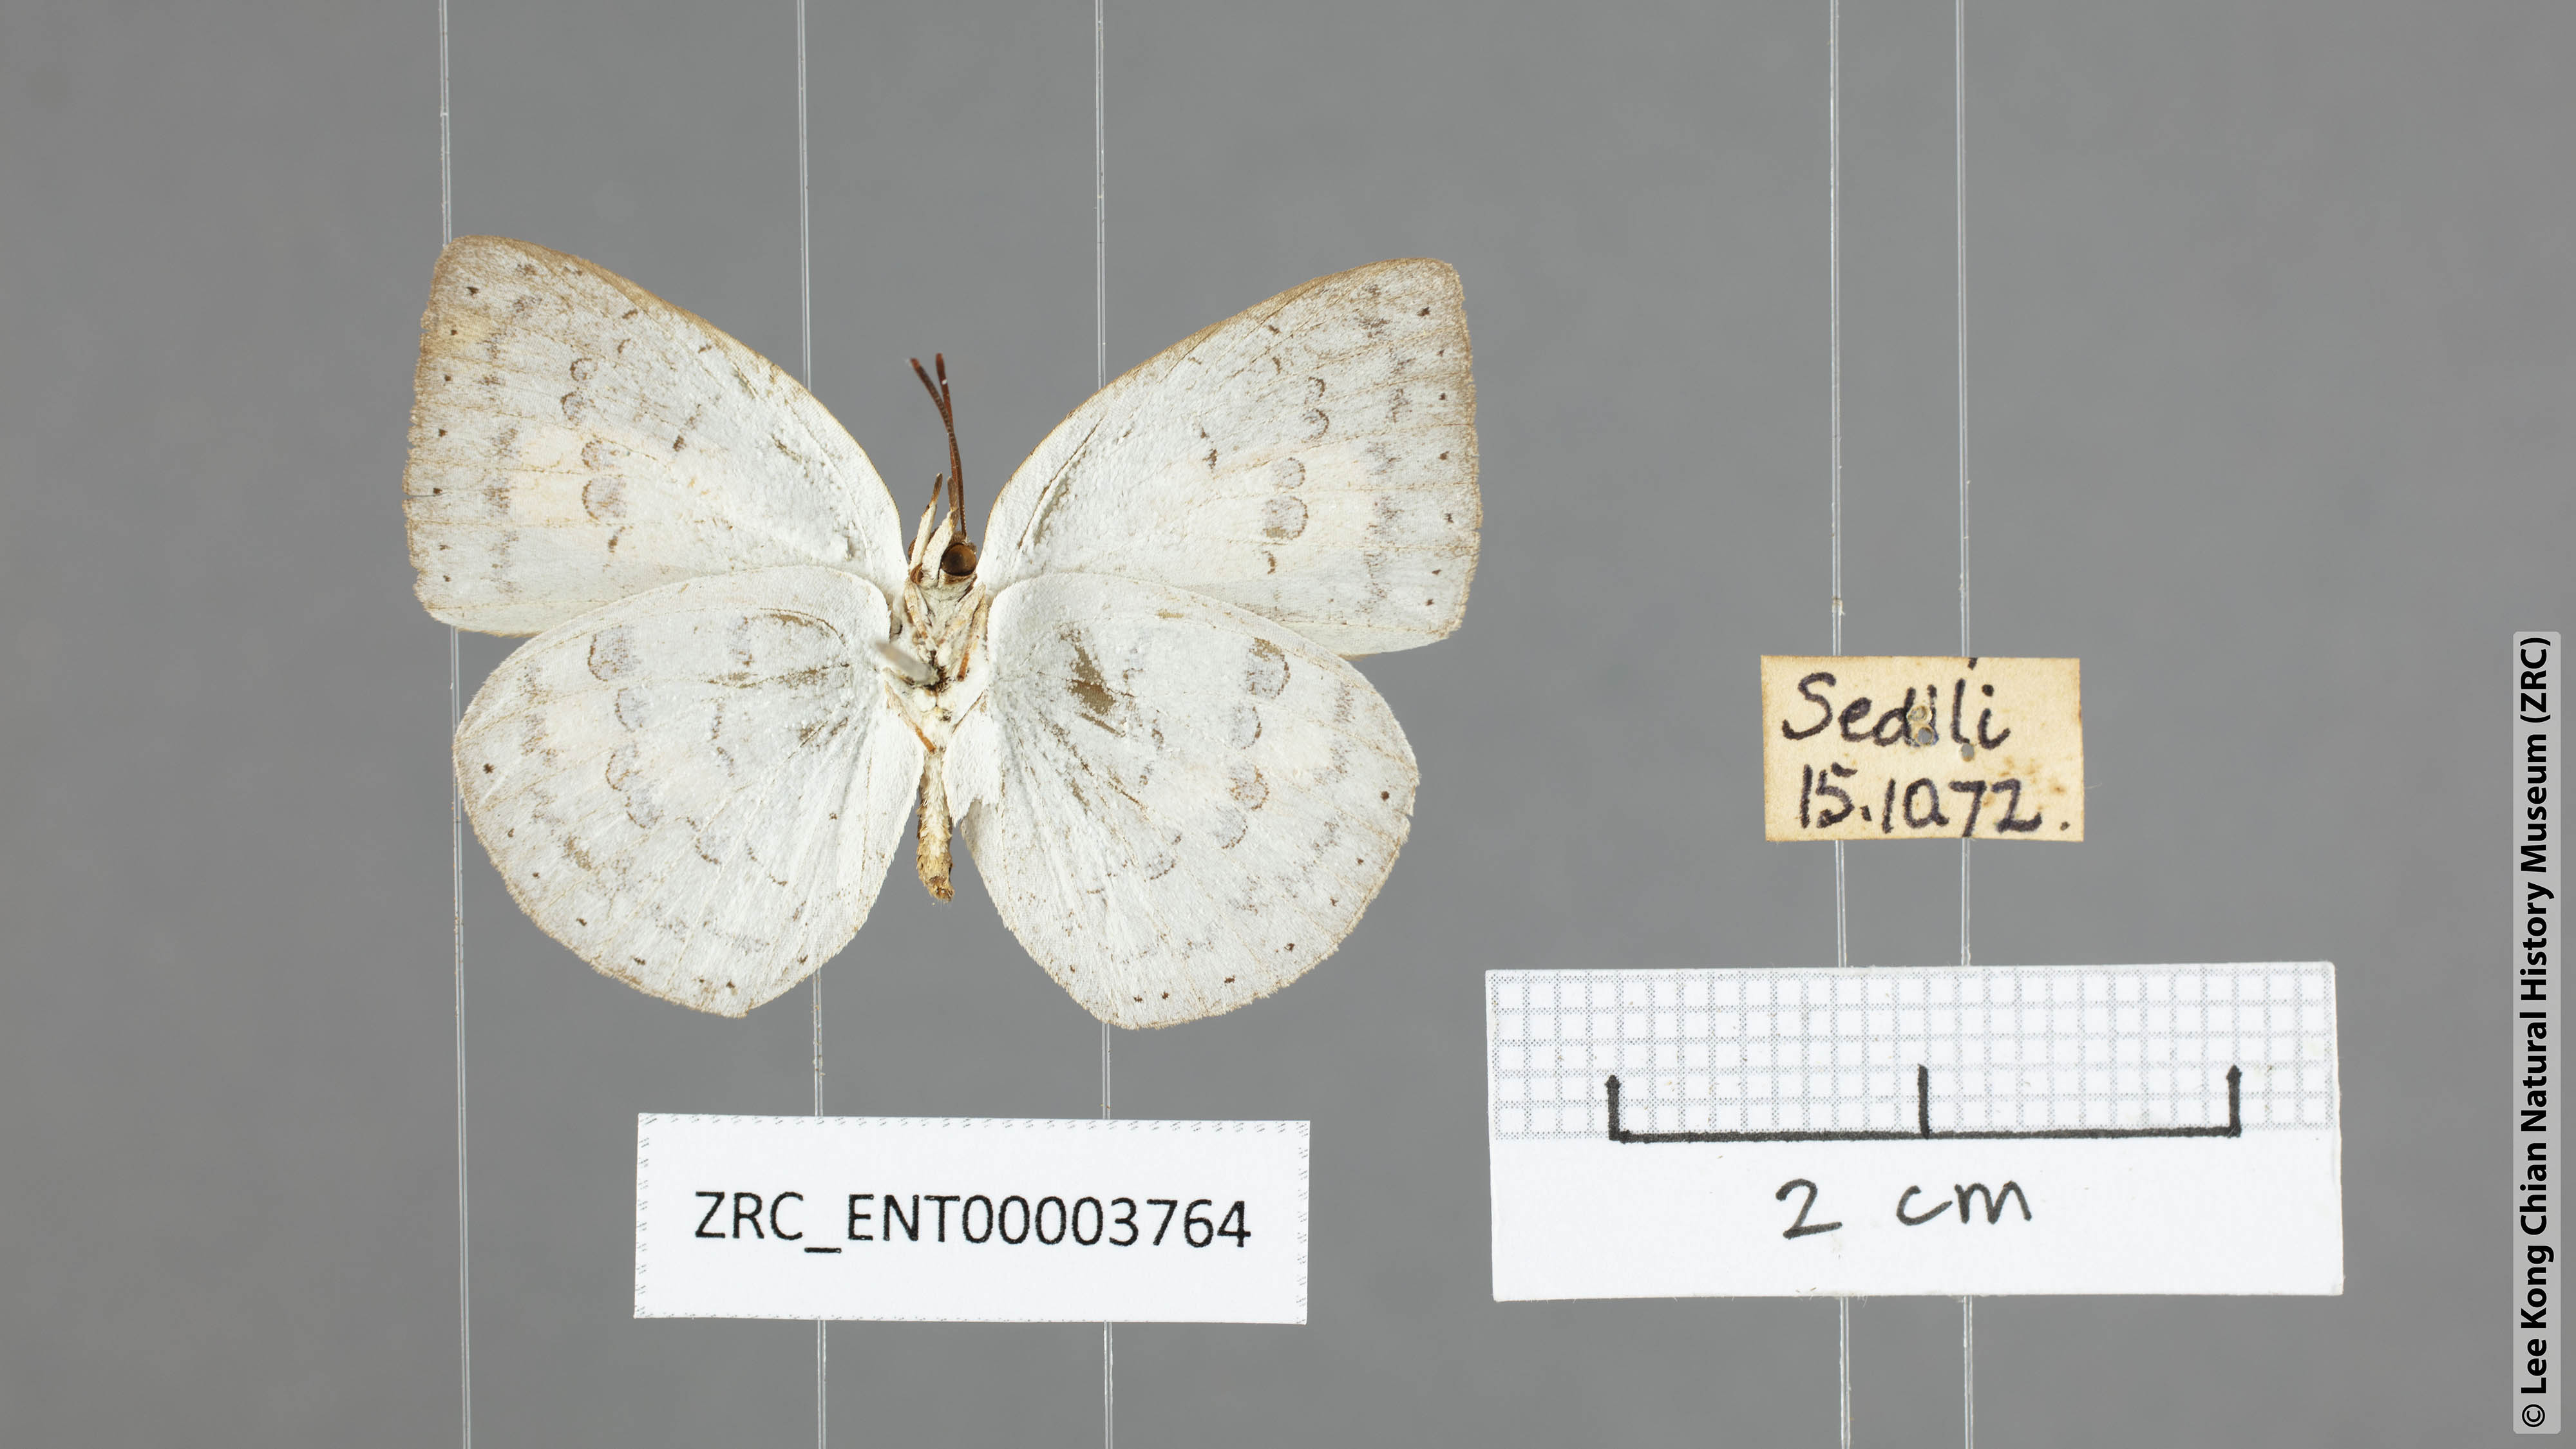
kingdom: Animalia
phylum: Arthropoda
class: Insecta
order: Lepidoptera
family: Lycaenidae
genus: Curetis
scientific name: Curetis tagalica
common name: Southern sunbeam
